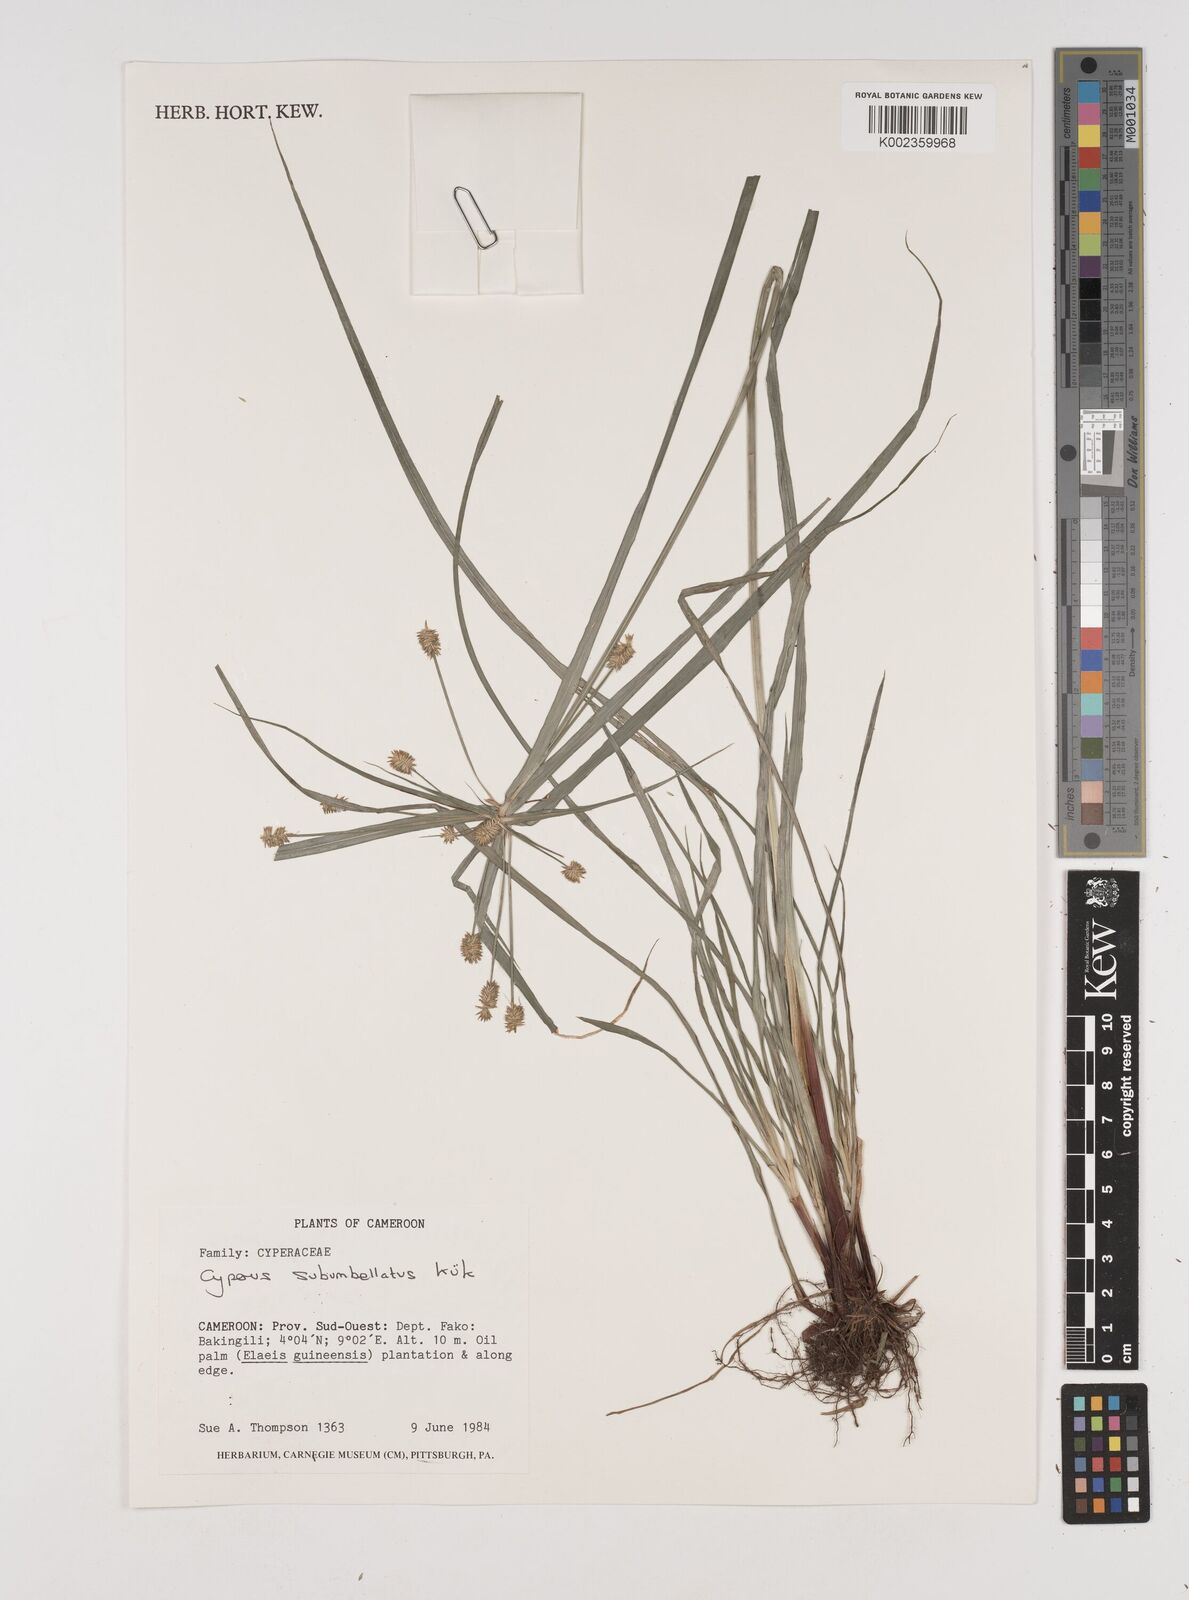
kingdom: Plantae
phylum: Tracheophyta
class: Liliopsida
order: Poales
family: Cyperaceae
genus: Cyperus
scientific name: Cyperus cyperoides
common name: Pacific island flat sedge
